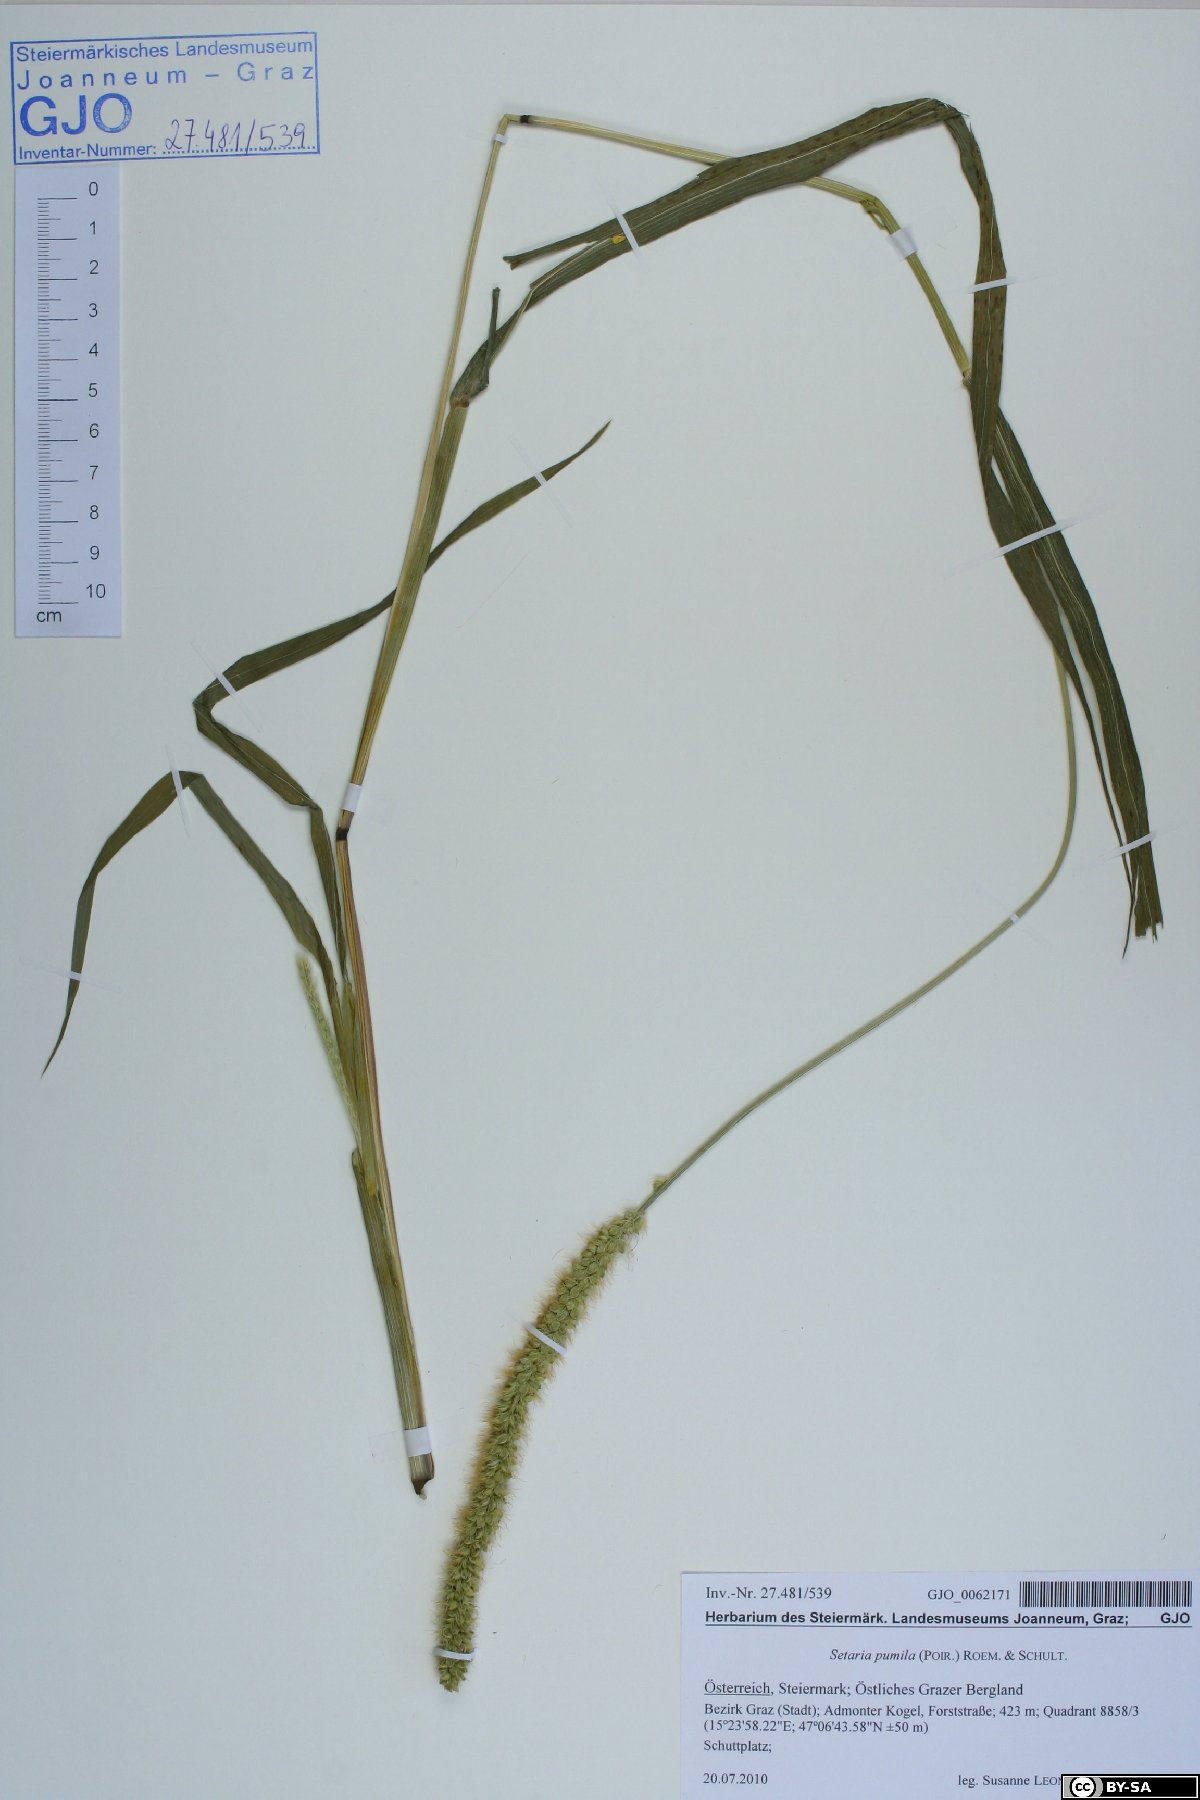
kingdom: Plantae
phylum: Tracheophyta
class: Liliopsida
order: Poales
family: Poaceae
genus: Setaria
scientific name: Setaria pumila
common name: Yellow bristle-grass
